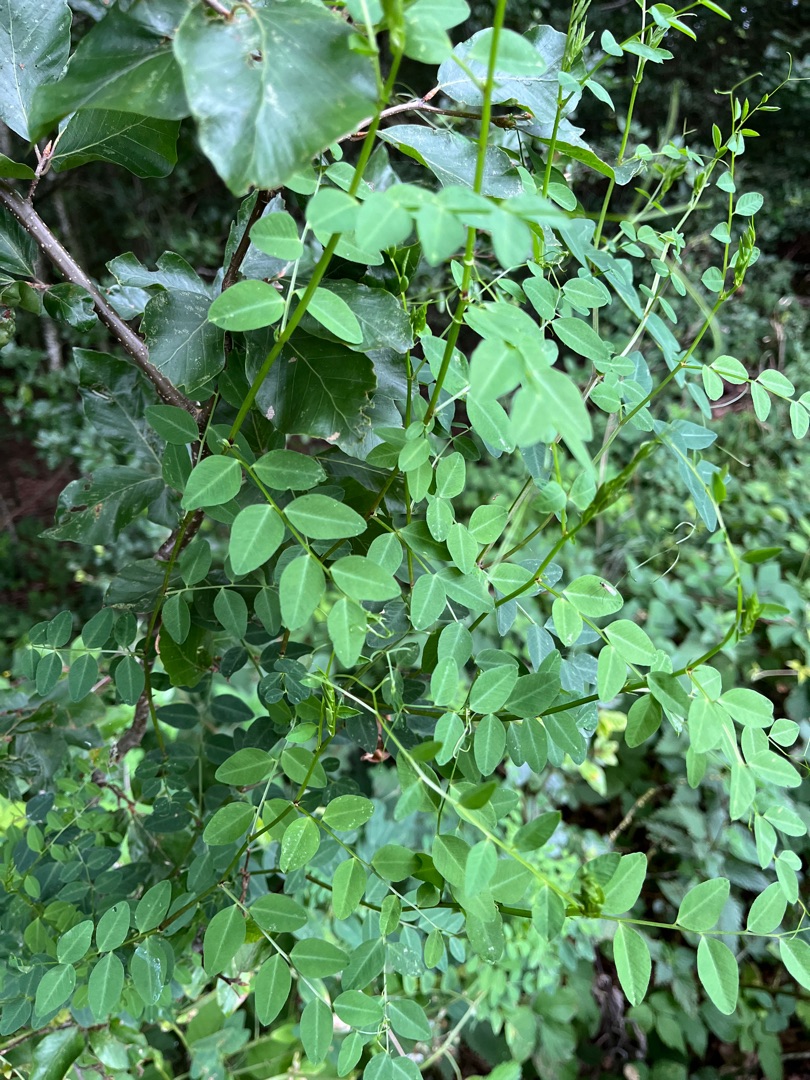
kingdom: Plantae
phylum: Tracheophyta
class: Magnoliopsida
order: Fabales
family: Fabaceae
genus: Vicia
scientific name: Vicia dumetorum
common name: Krat-vikke
